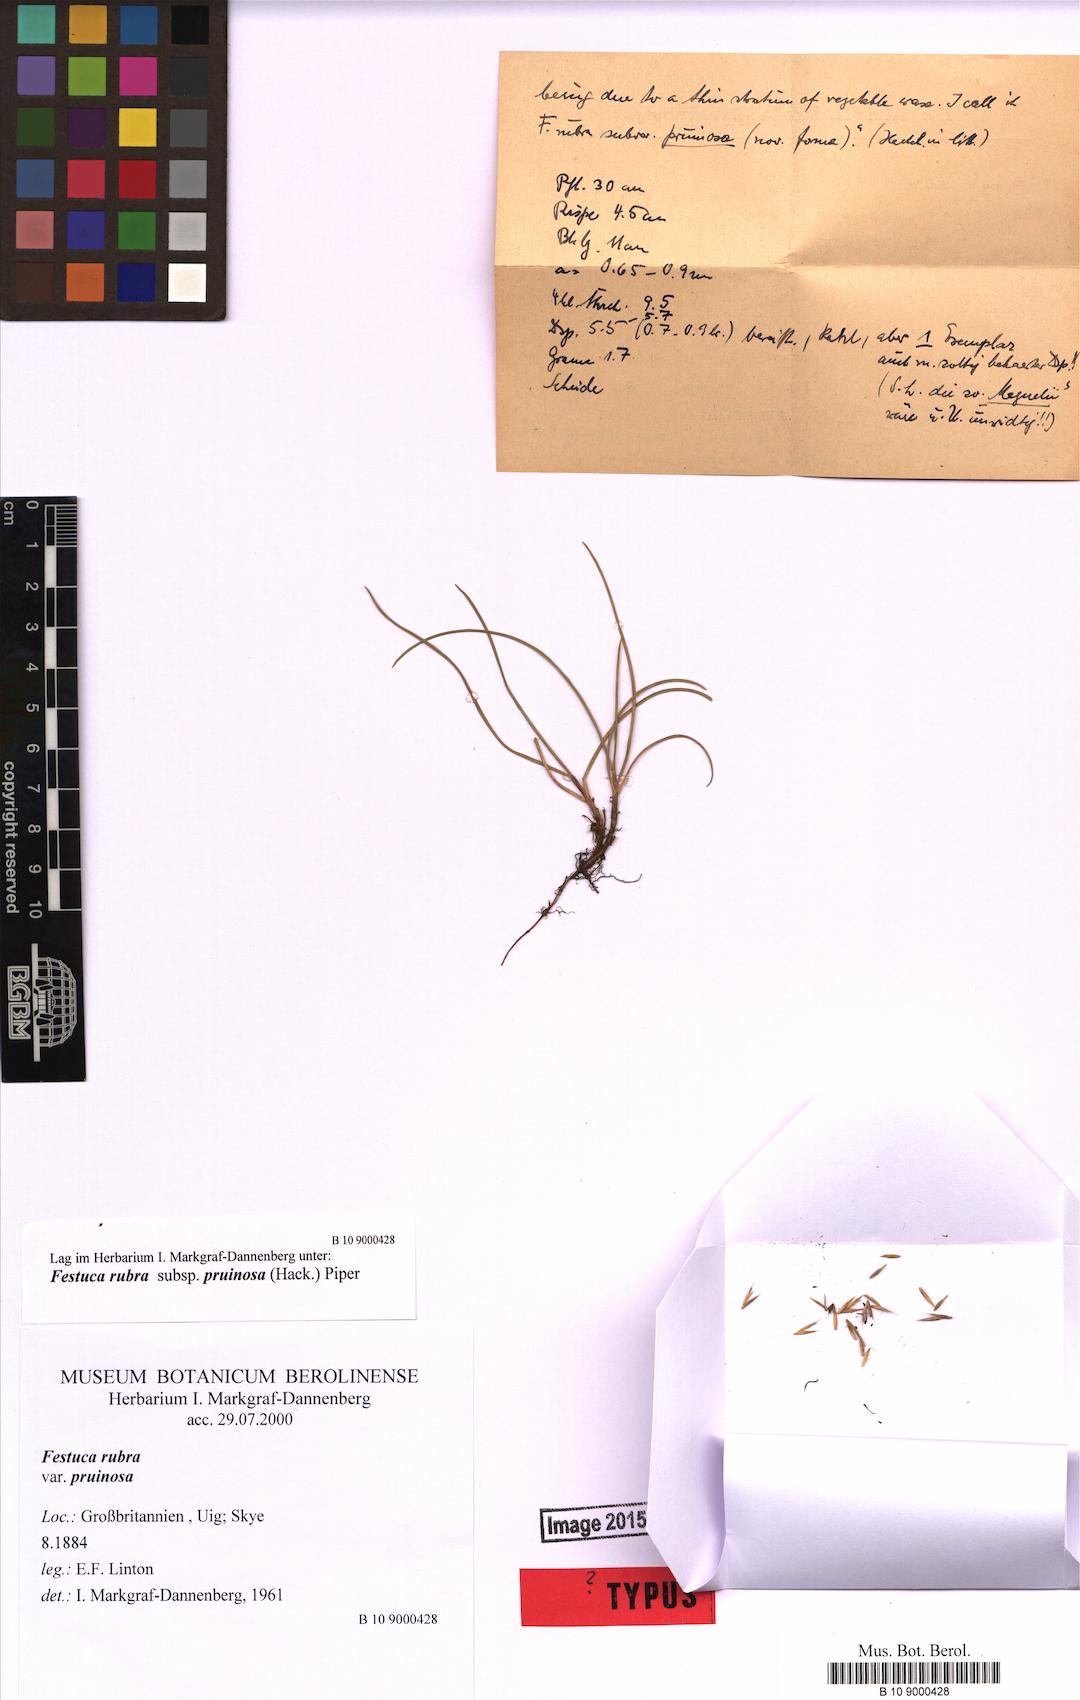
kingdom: Plantae
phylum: Tracheophyta
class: Liliopsida
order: Poales
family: Poaceae
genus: Festuca
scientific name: Festuca rubra
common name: Red fescue
